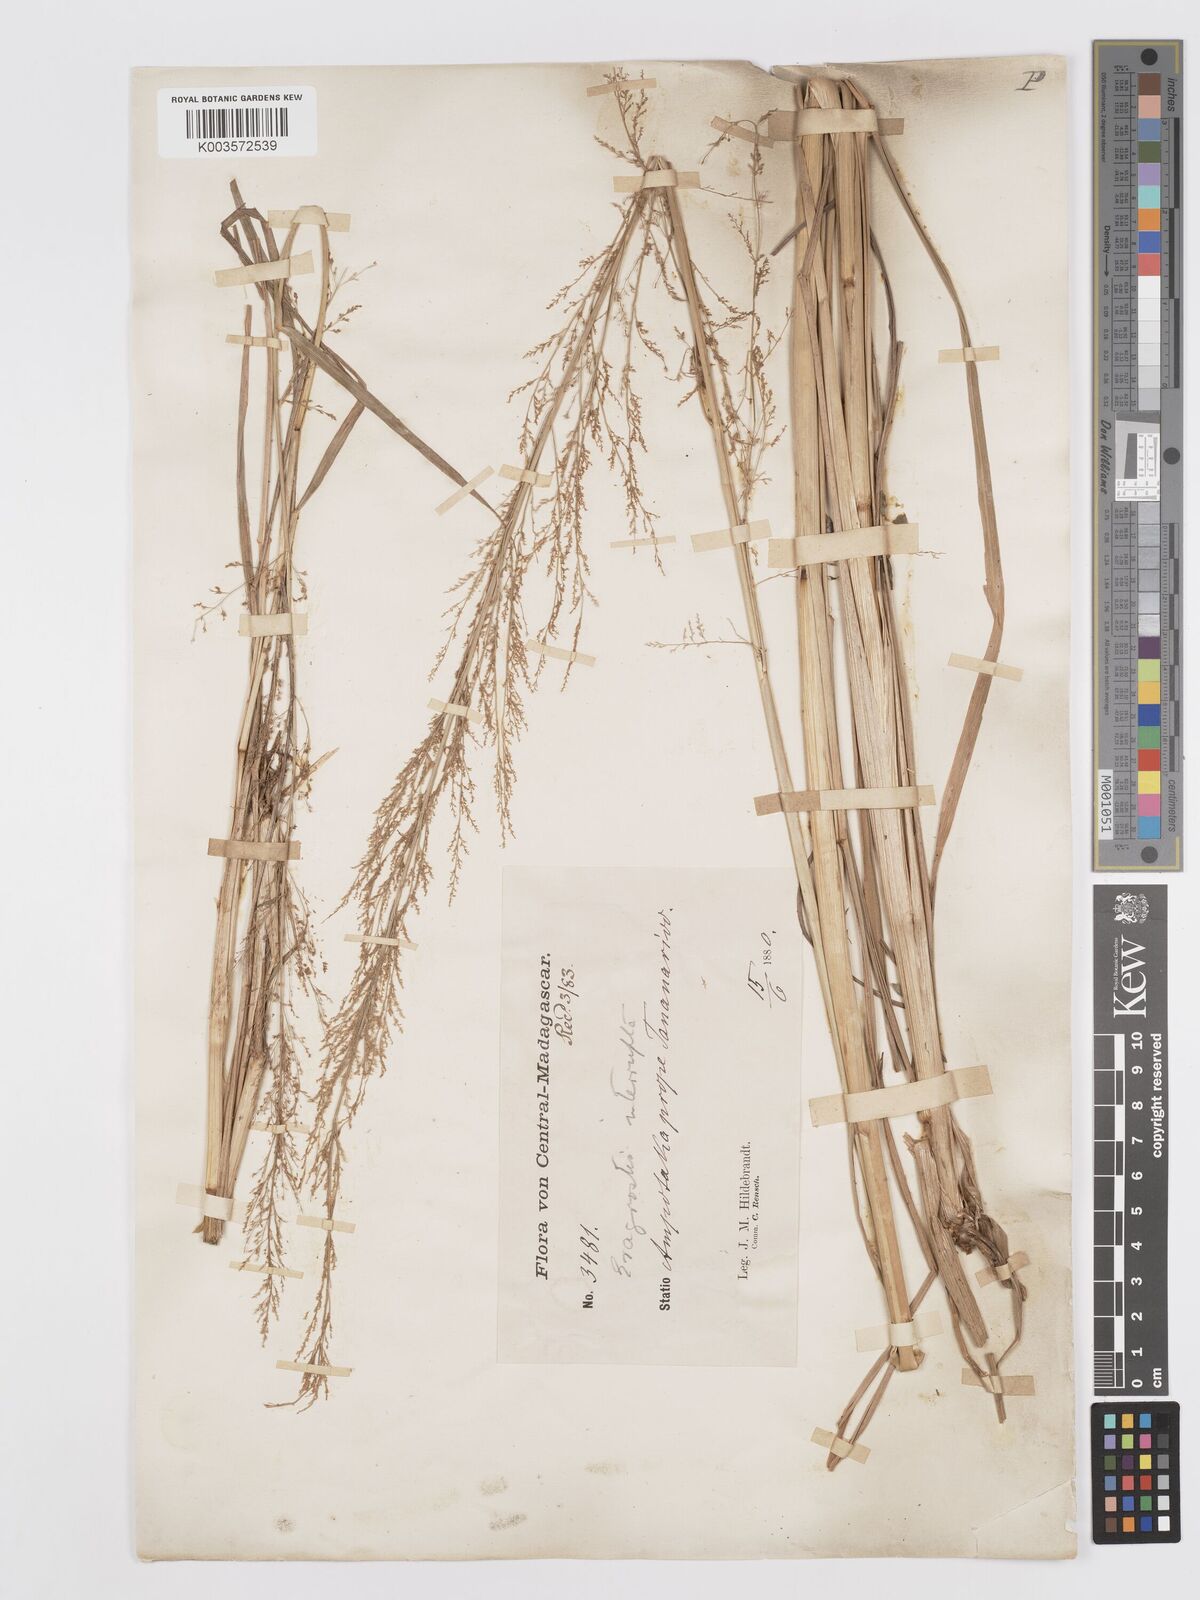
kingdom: Plantae
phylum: Tracheophyta
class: Liliopsida
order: Poales
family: Poaceae
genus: Eragrostis
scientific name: Eragrostis japonica
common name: Pond lovegrass
